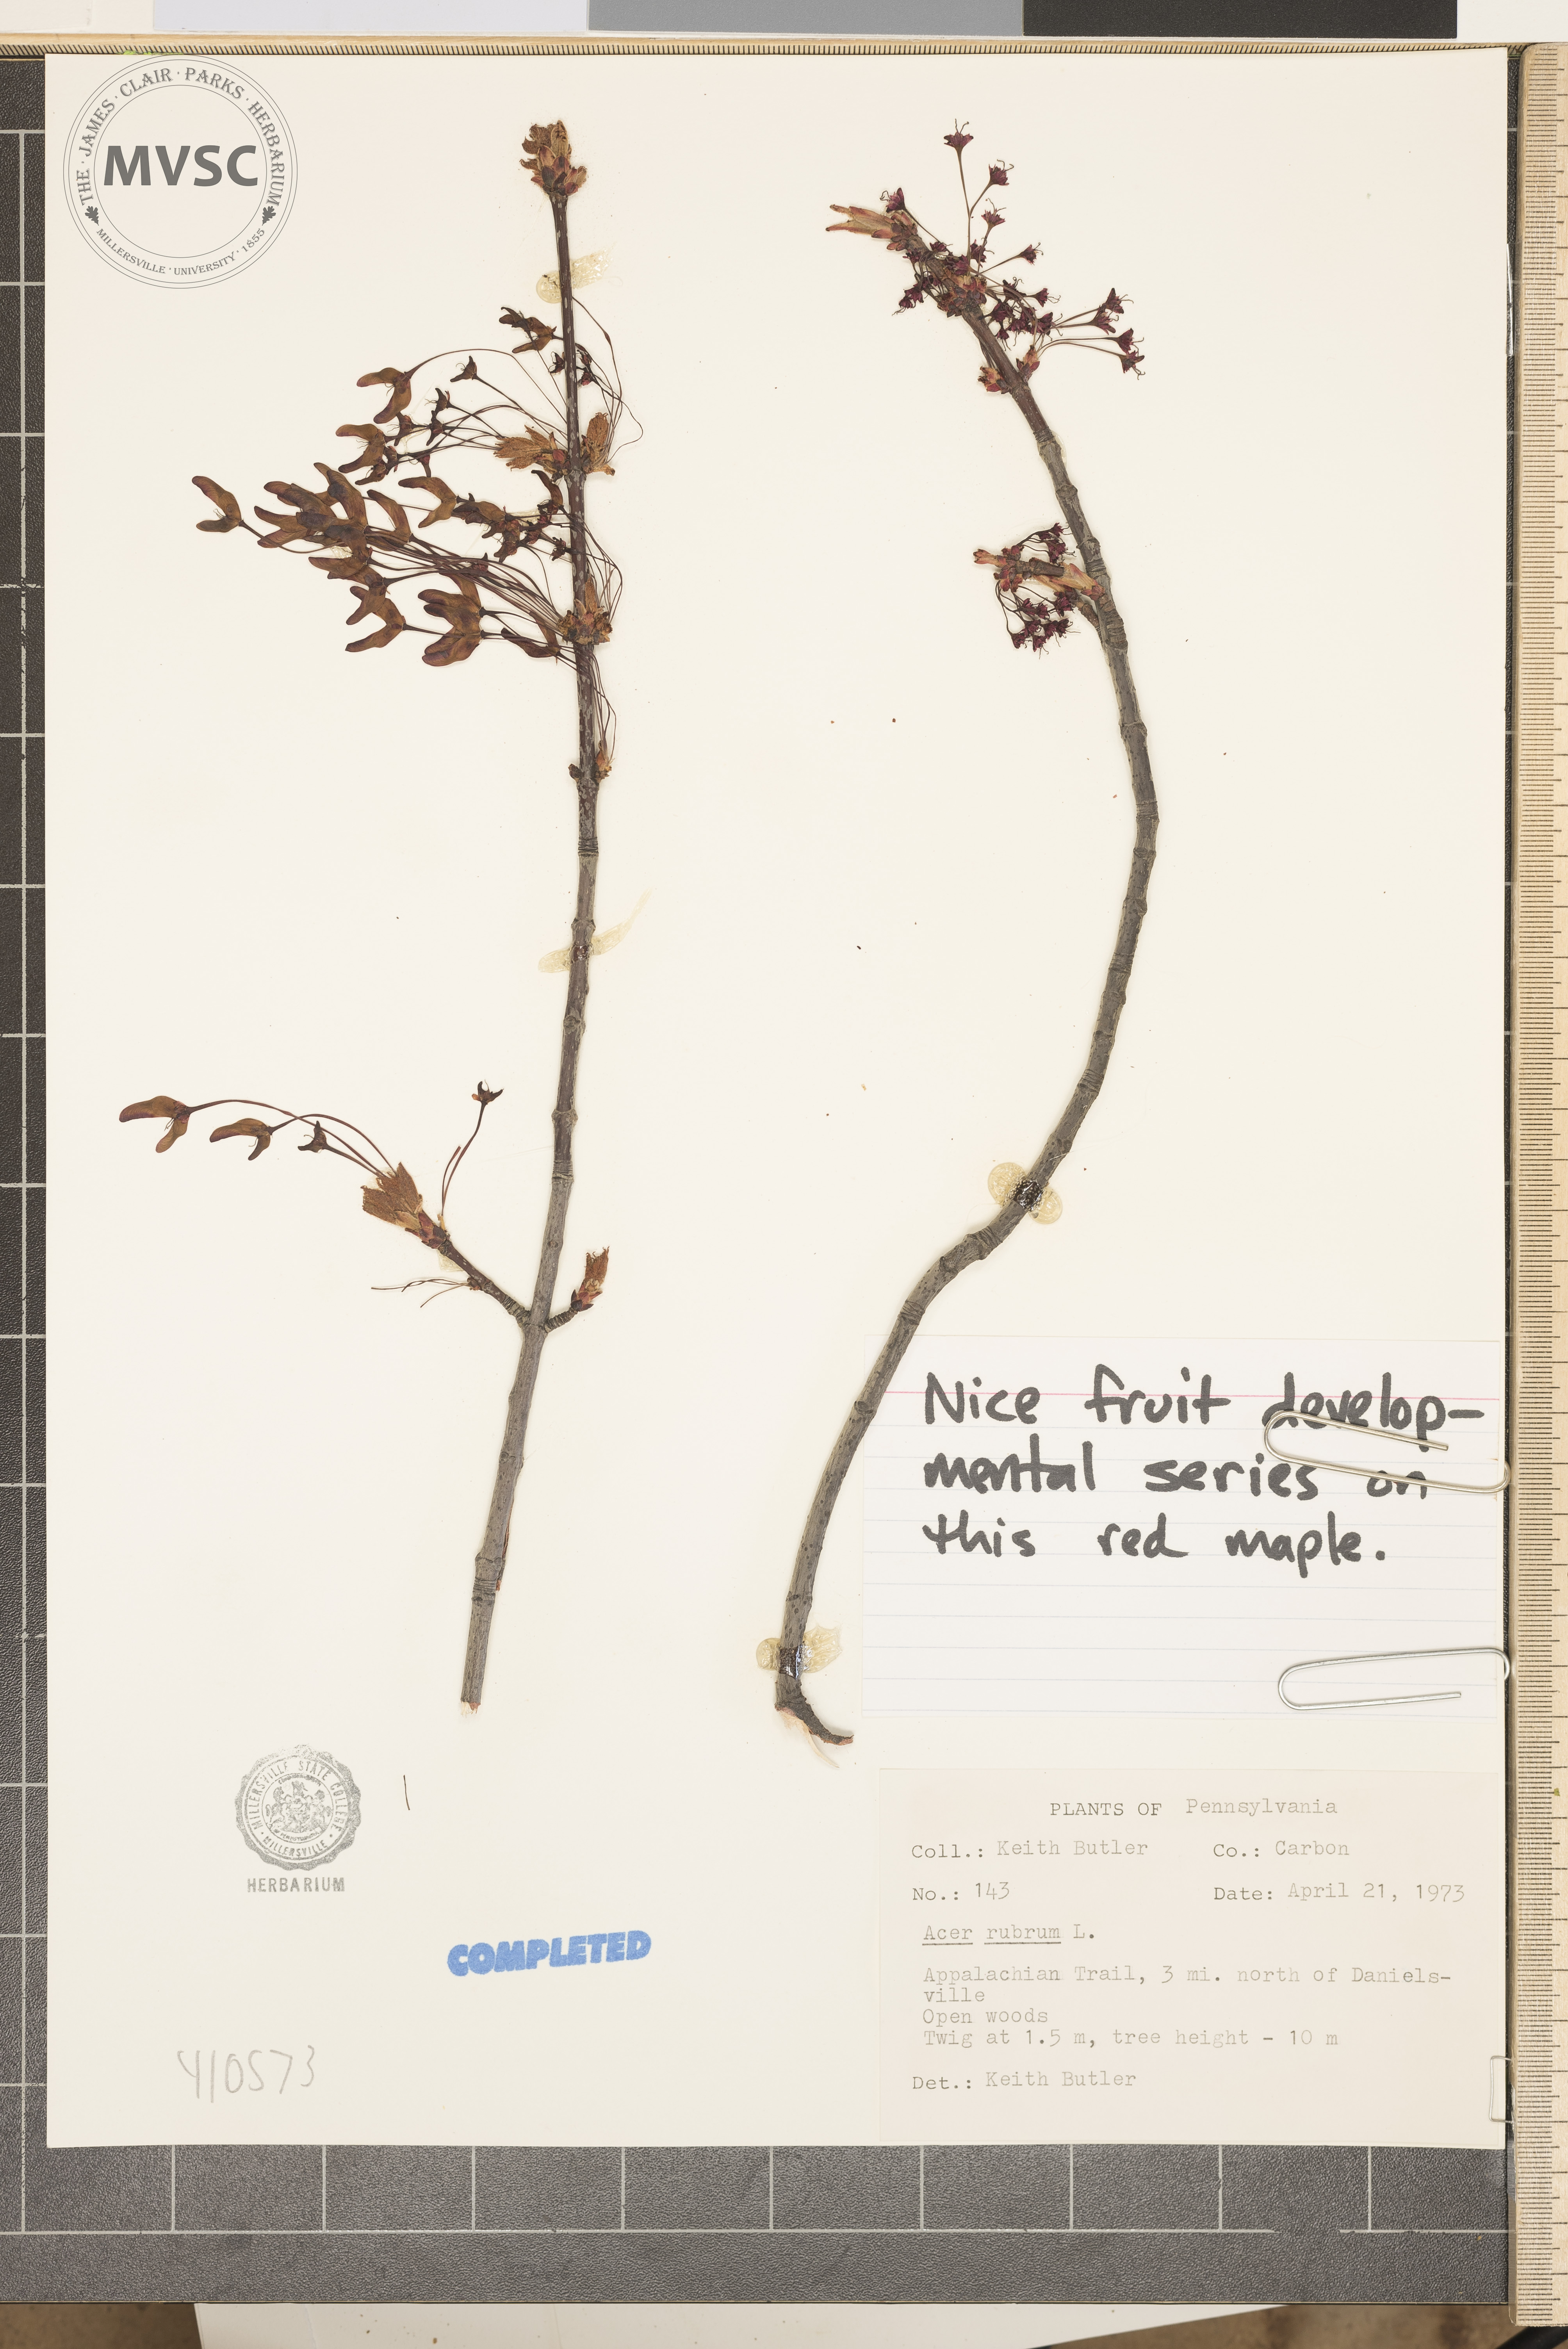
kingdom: Plantae
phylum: Tracheophyta
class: Magnoliopsida
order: Sapindales
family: Sapindaceae
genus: Acer
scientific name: Acer rubrum
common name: Red maple
